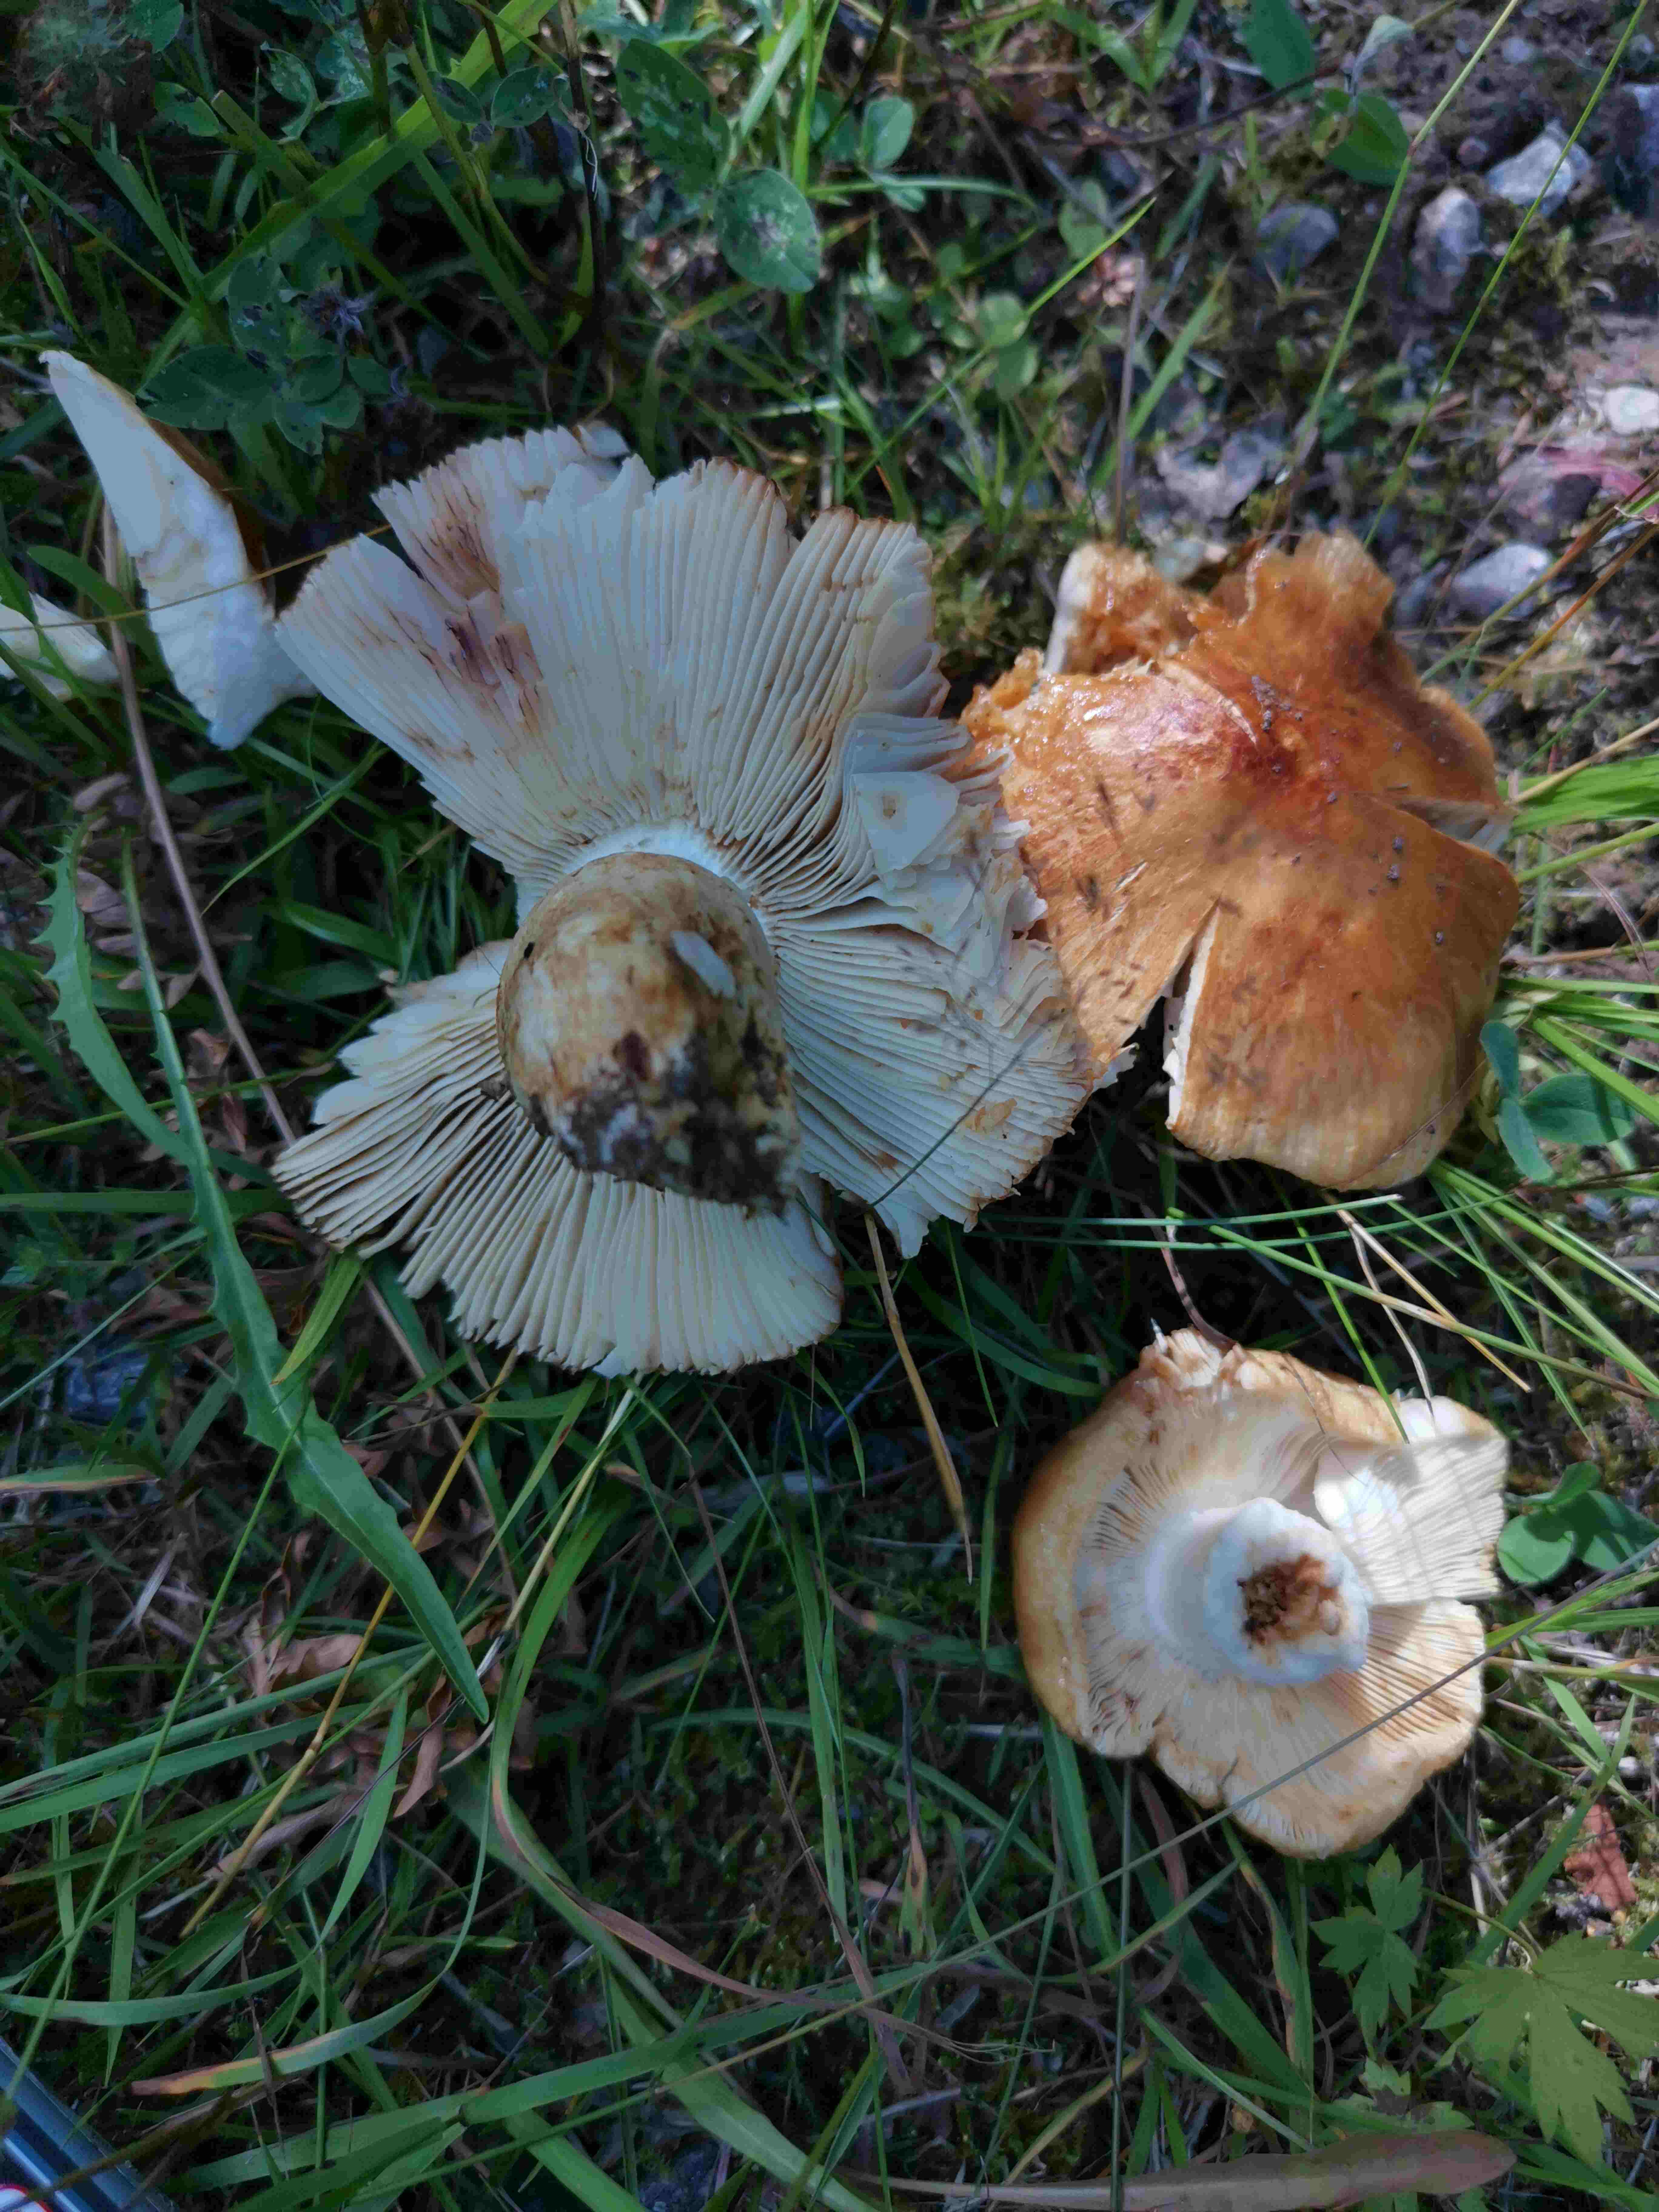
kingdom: Fungi
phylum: Basidiomycota
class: Agaricomycetes
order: Russulales
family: Russulaceae
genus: Russula
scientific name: Russula foetens
